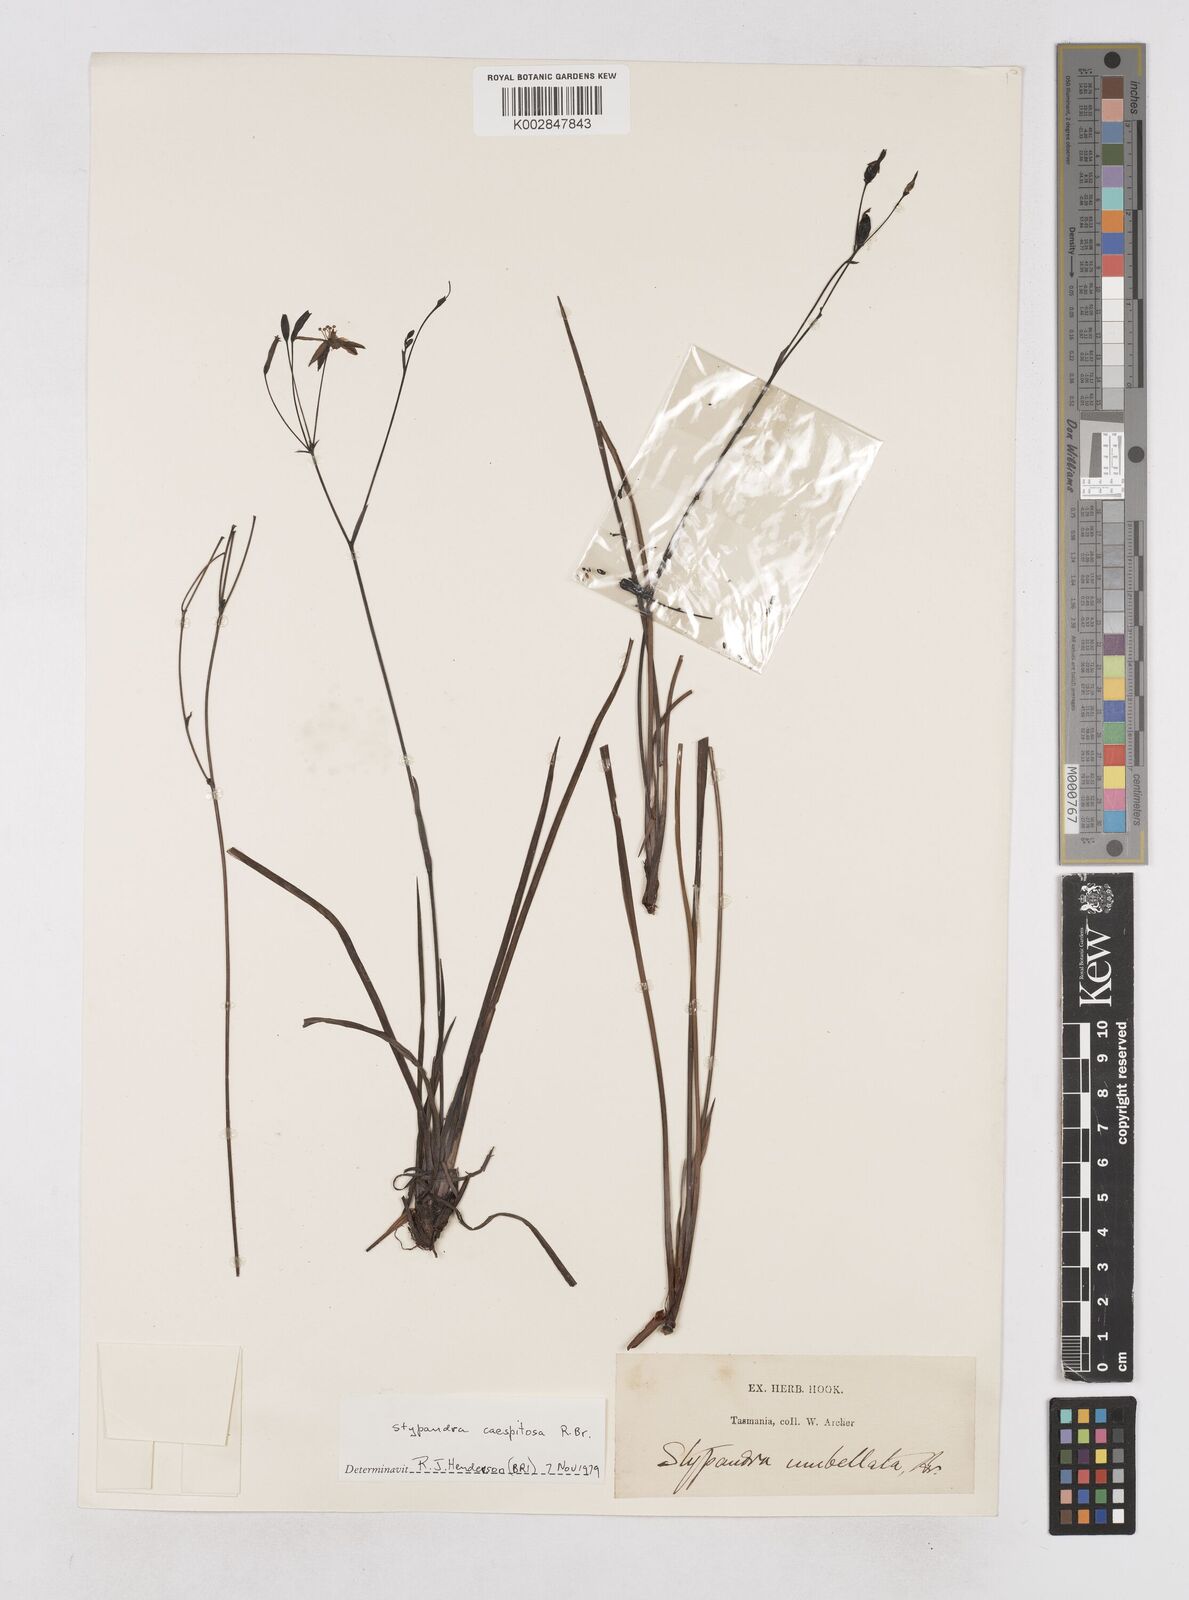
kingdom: Plantae
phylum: Tracheophyta
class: Liliopsida
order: Asparagales
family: Asphodelaceae
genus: Thelionema
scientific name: Thelionema caespitosum
